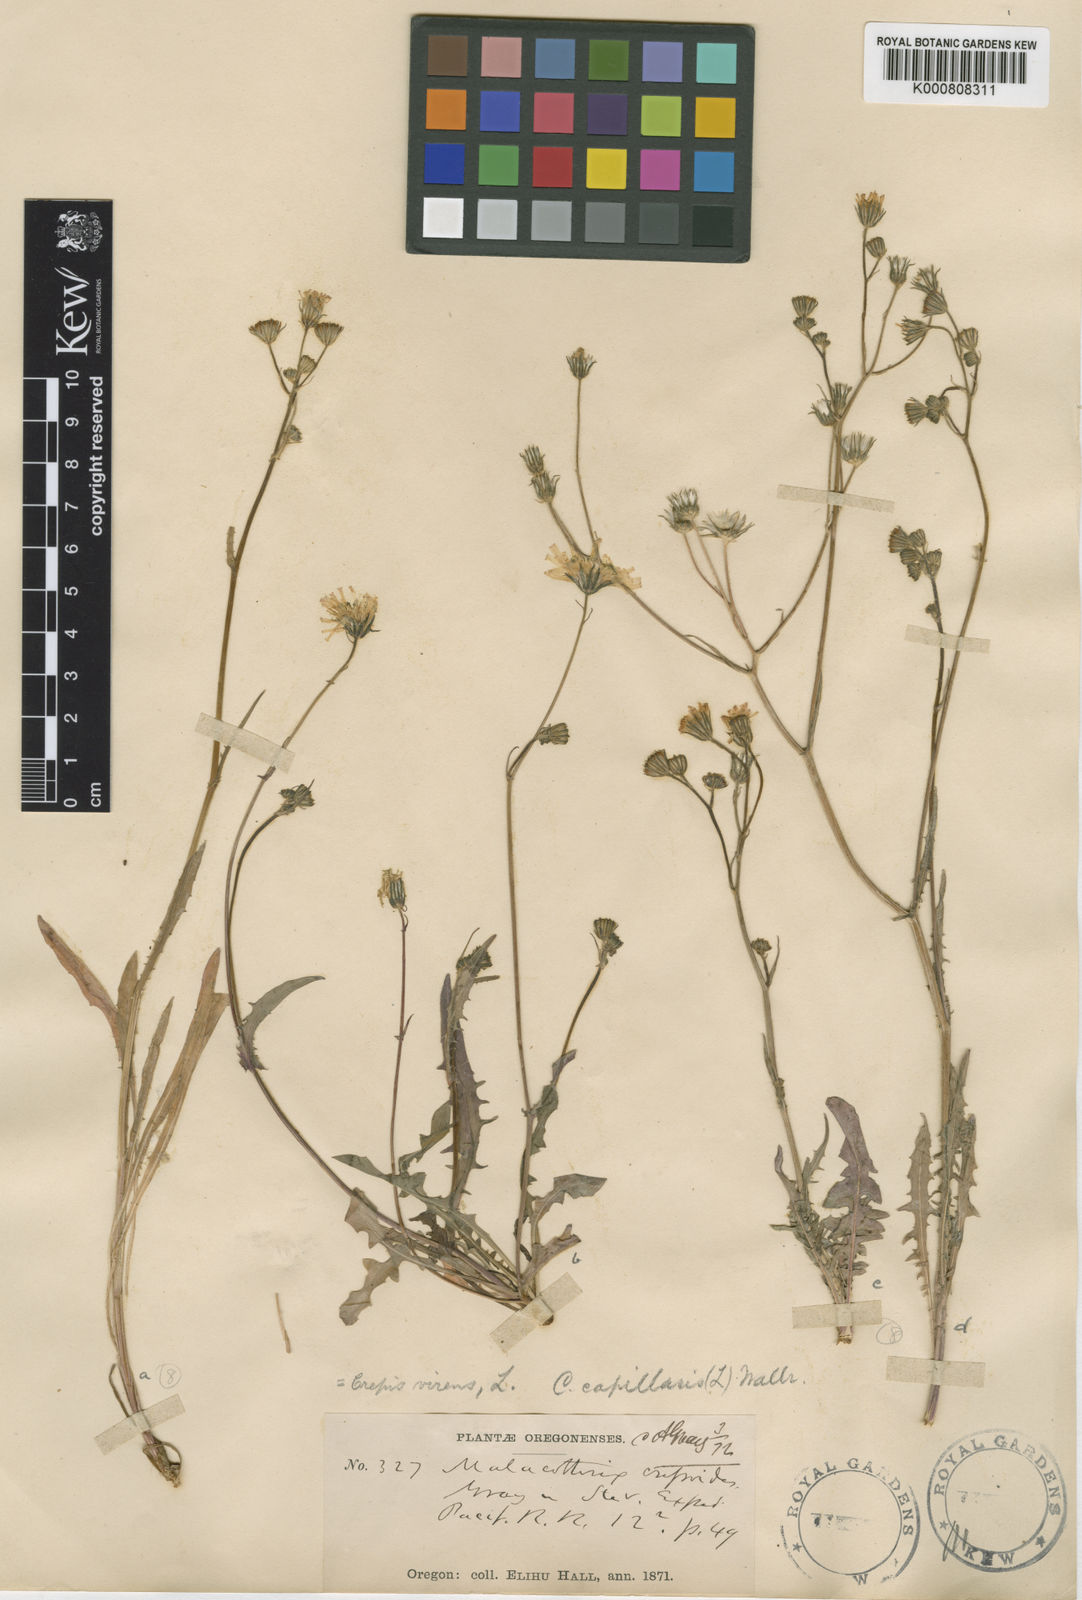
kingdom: Plantae
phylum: Tracheophyta
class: Magnoliopsida
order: Asterales
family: Asteraceae
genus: Crepis
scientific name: Crepis capillaris
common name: Smooth hawksbeard
